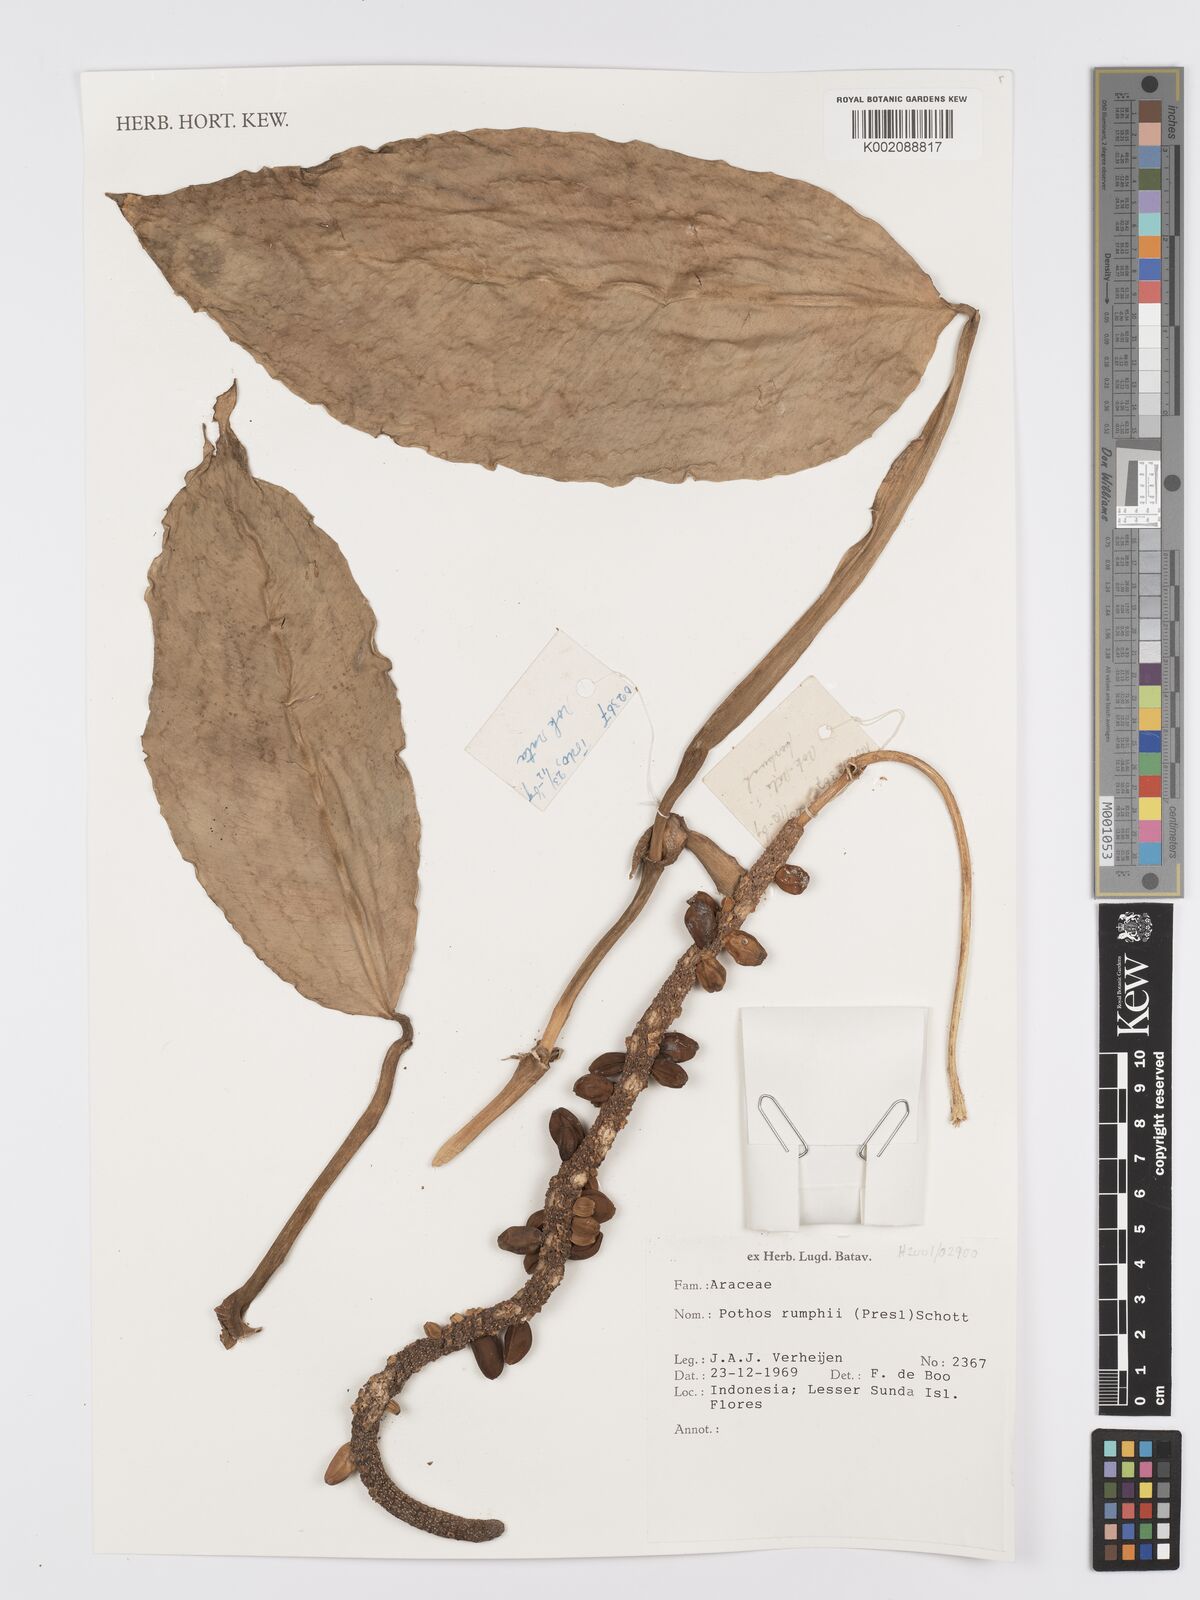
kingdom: Plantae
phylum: Tracheophyta
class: Liliopsida
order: Alismatales
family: Araceae
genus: Pothos
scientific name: Pothos tener
